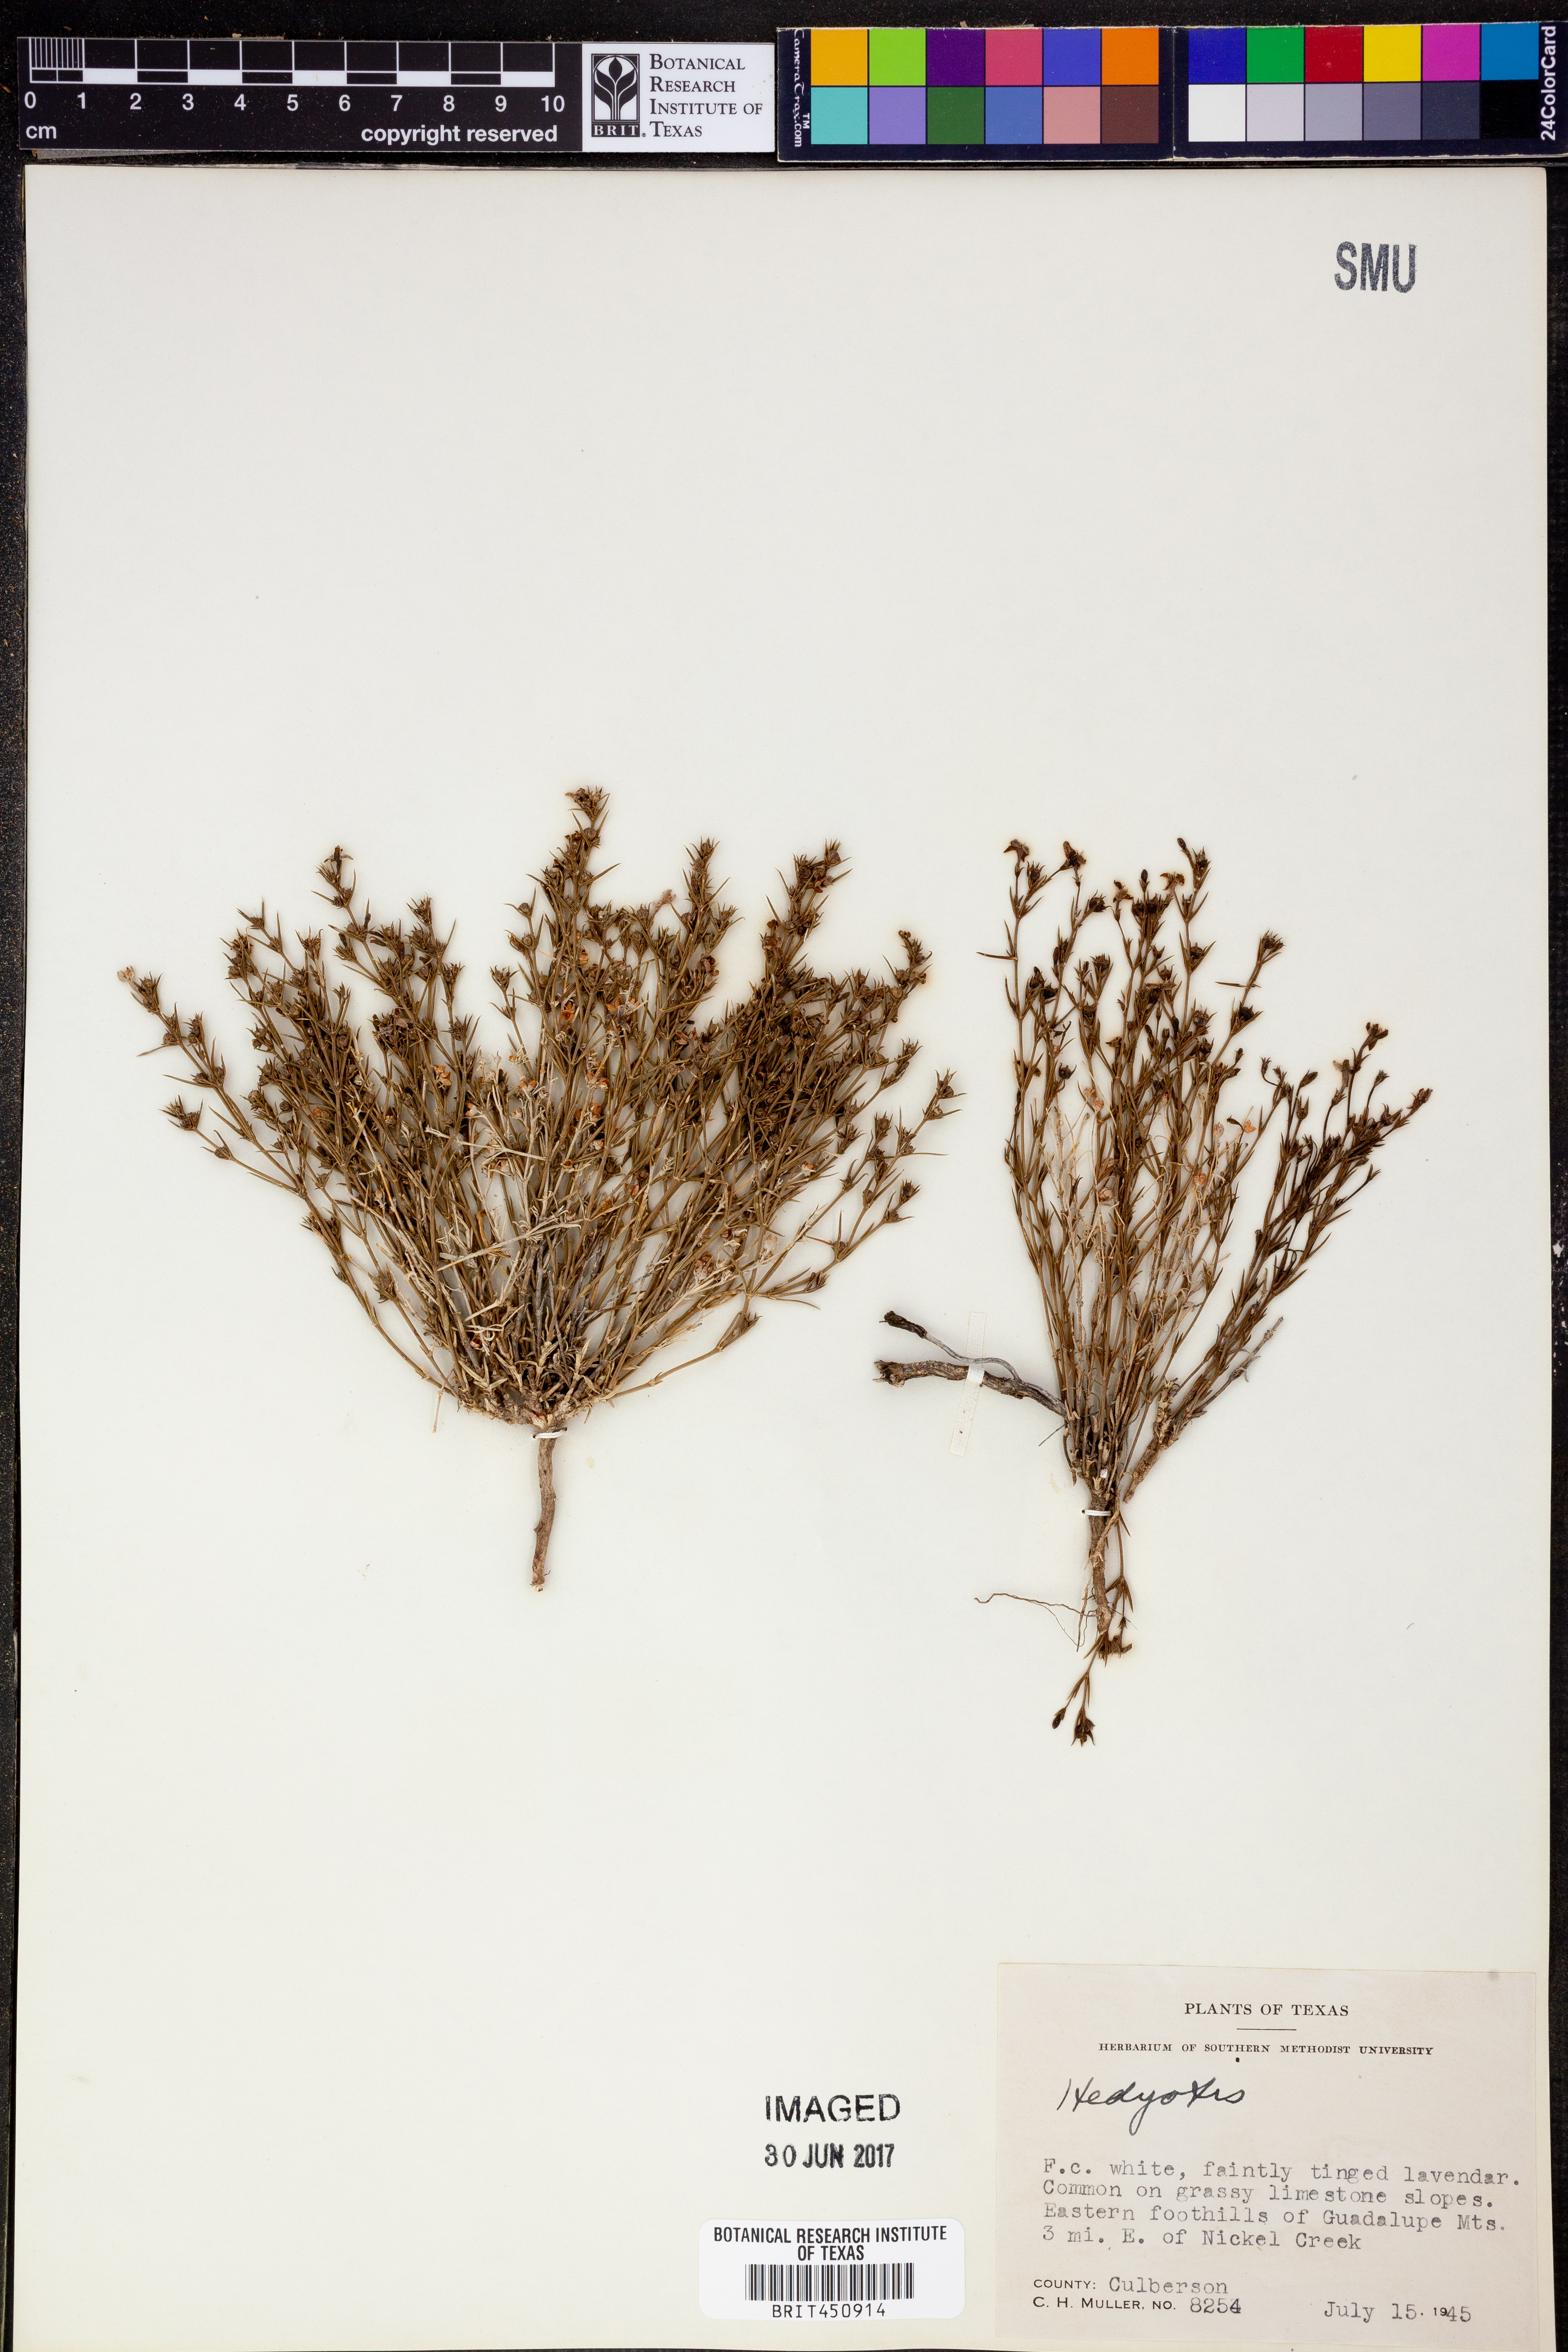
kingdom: Plantae
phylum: Tracheophyta
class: Magnoliopsida
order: Gentianales
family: Rubiaceae
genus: Hedyotis
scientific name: Hedyotis
